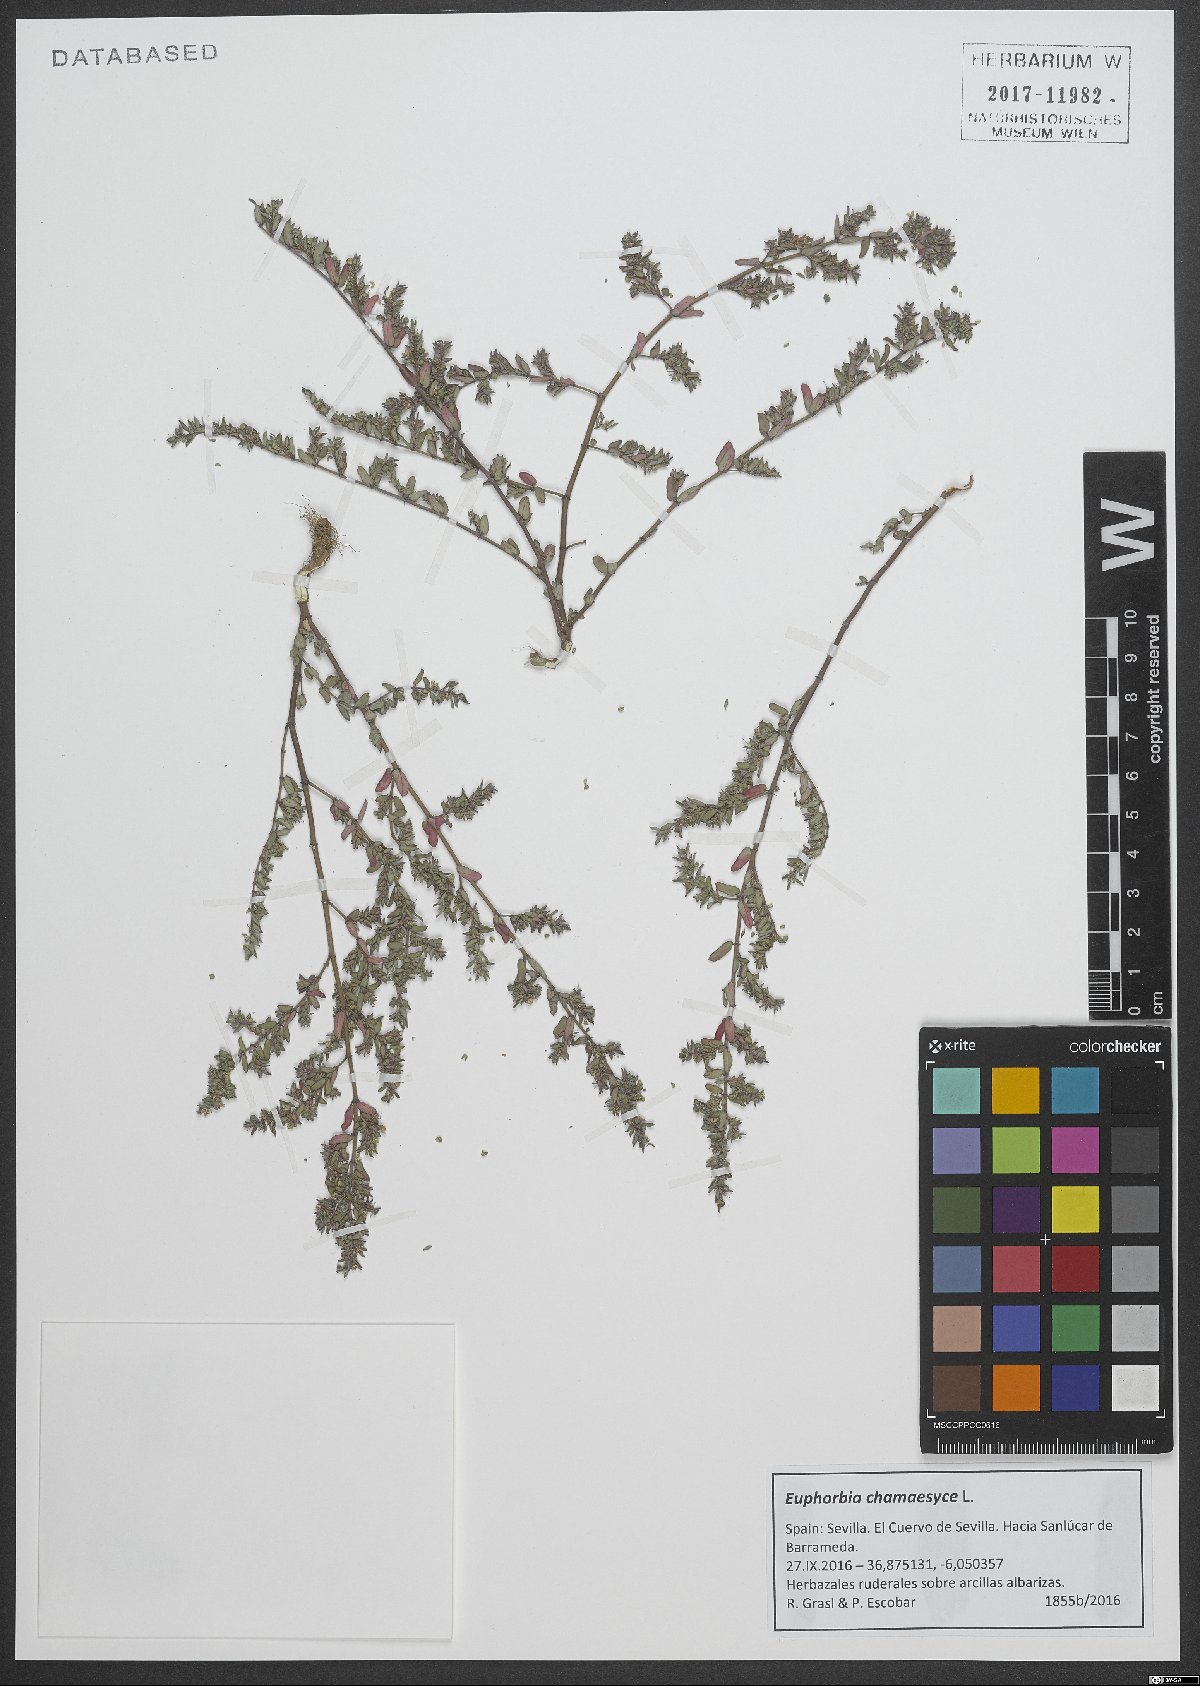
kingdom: Plantae
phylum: Tracheophyta
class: Magnoliopsida
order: Malpighiales
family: Euphorbiaceae
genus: Euphorbia
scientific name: Euphorbia chamaesyce
